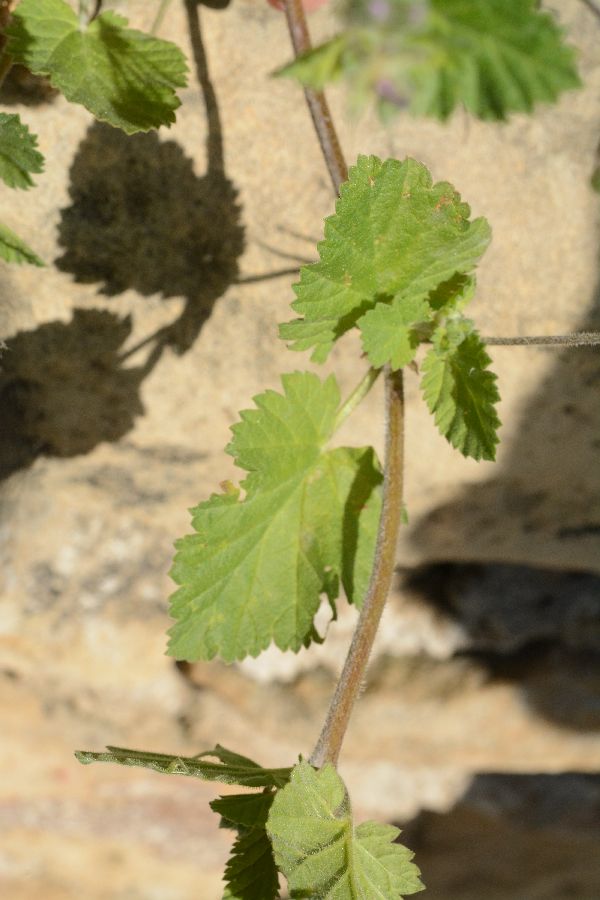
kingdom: Plantae
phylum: Tracheophyta
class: Magnoliopsida
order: Geraniales
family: Geraniaceae
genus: Erodium
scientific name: Erodium malacoides
